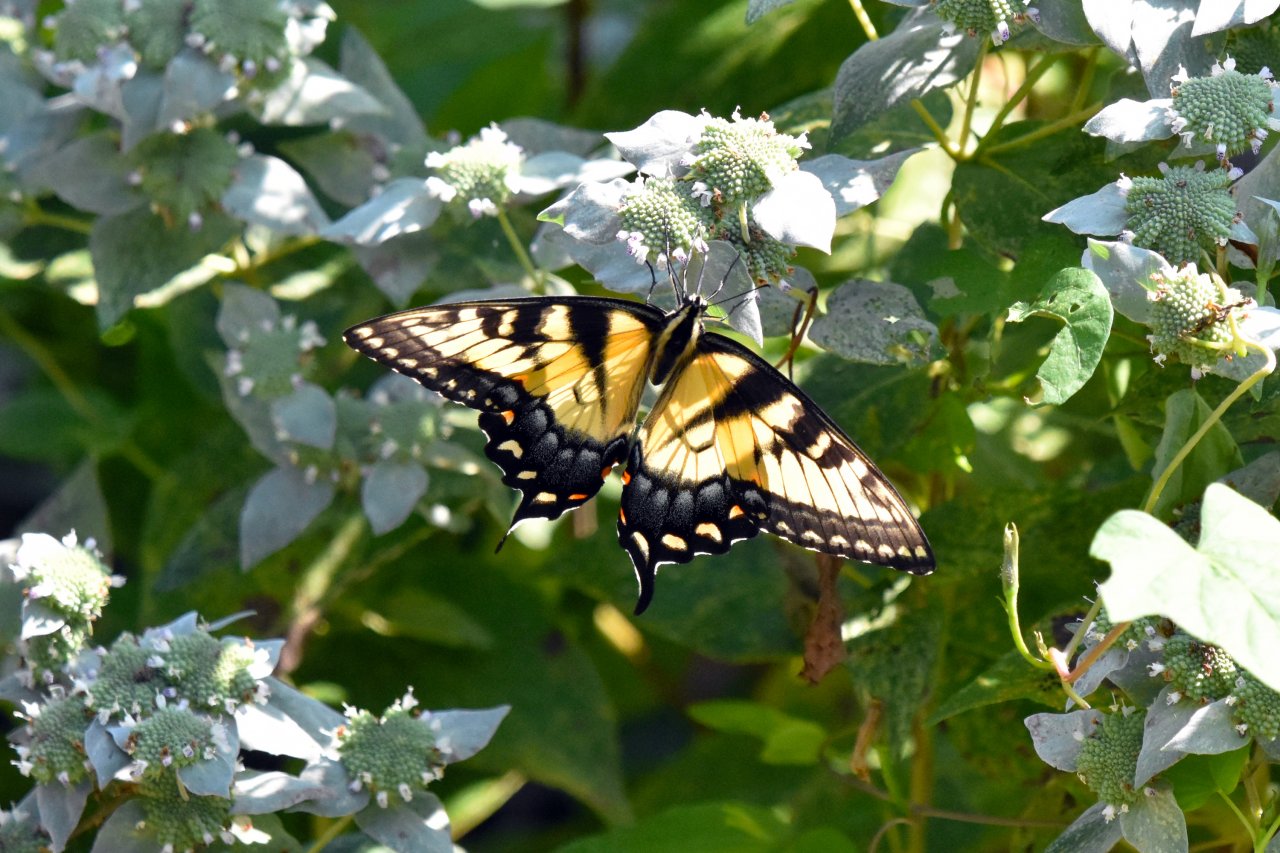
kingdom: Animalia
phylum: Arthropoda
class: Insecta
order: Lepidoptera
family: Papilionidae
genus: Pterourus
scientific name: Pterourus glaucus
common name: Eastern Tiger Swallowtail
